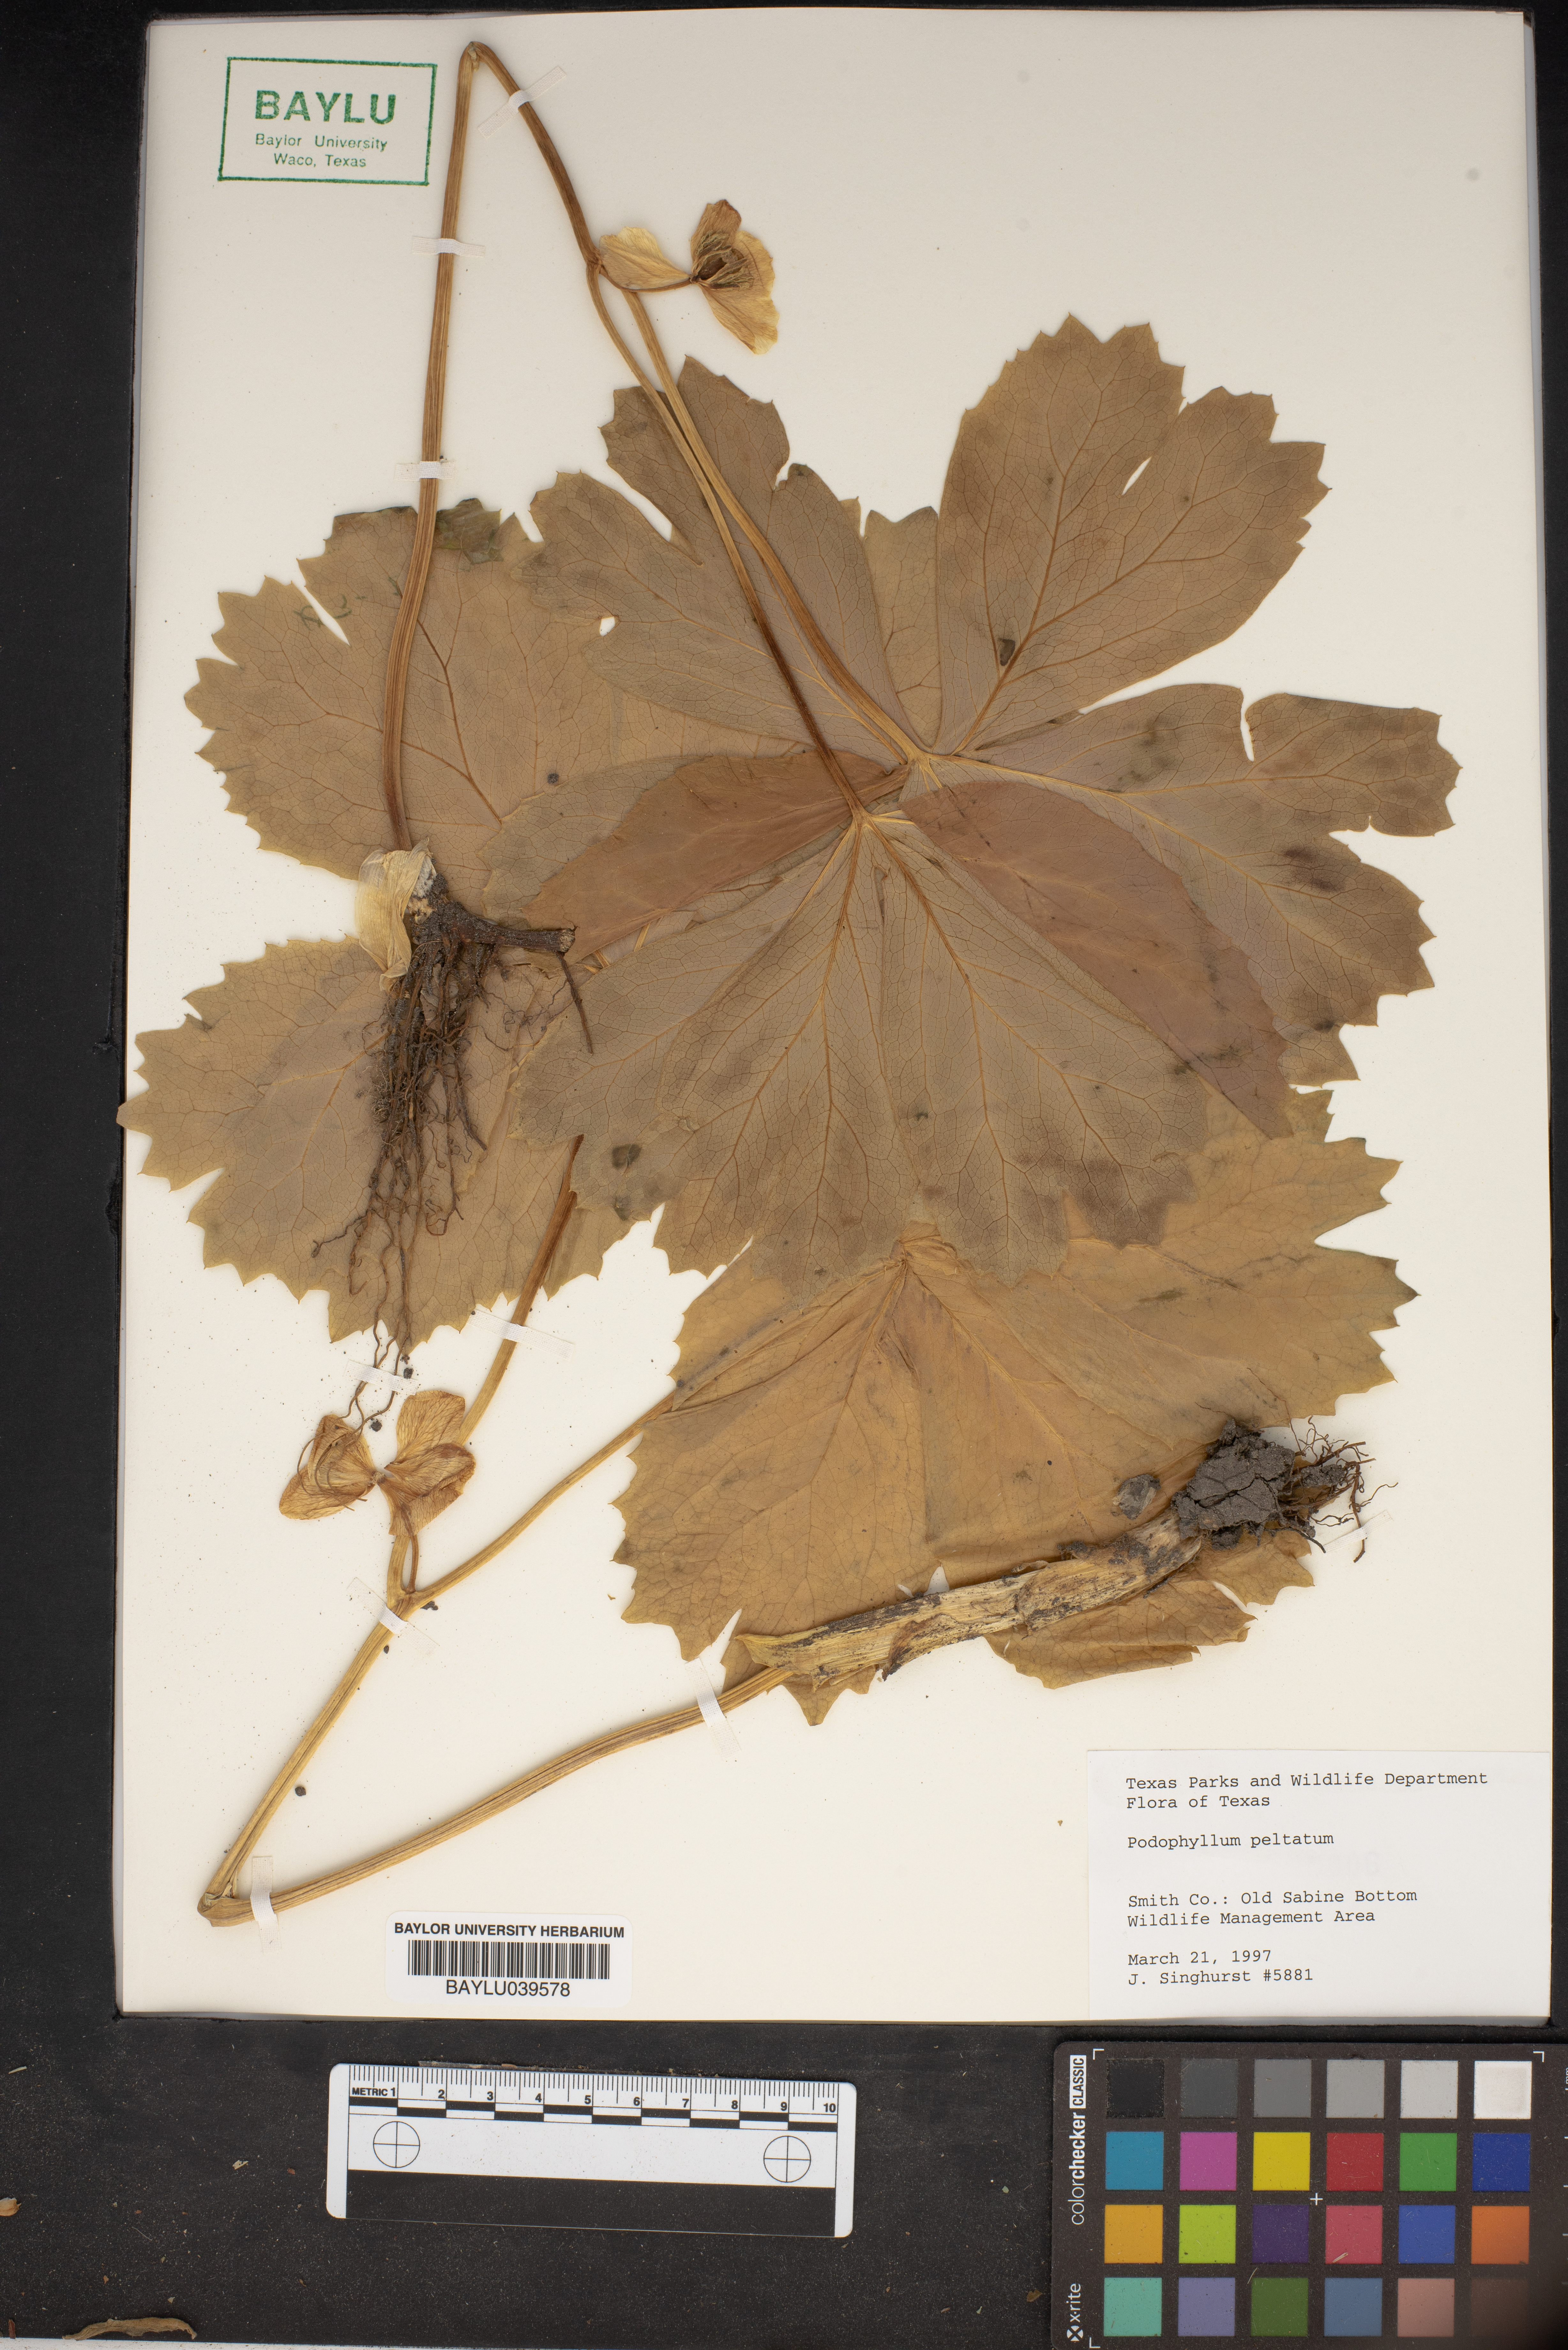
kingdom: Plantae
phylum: Tracheophyta
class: Magnoliopsida
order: Ranunculales
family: Berberidaceae
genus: Podophyllum
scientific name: Podophyllum peltatum
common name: Wild mandrake
